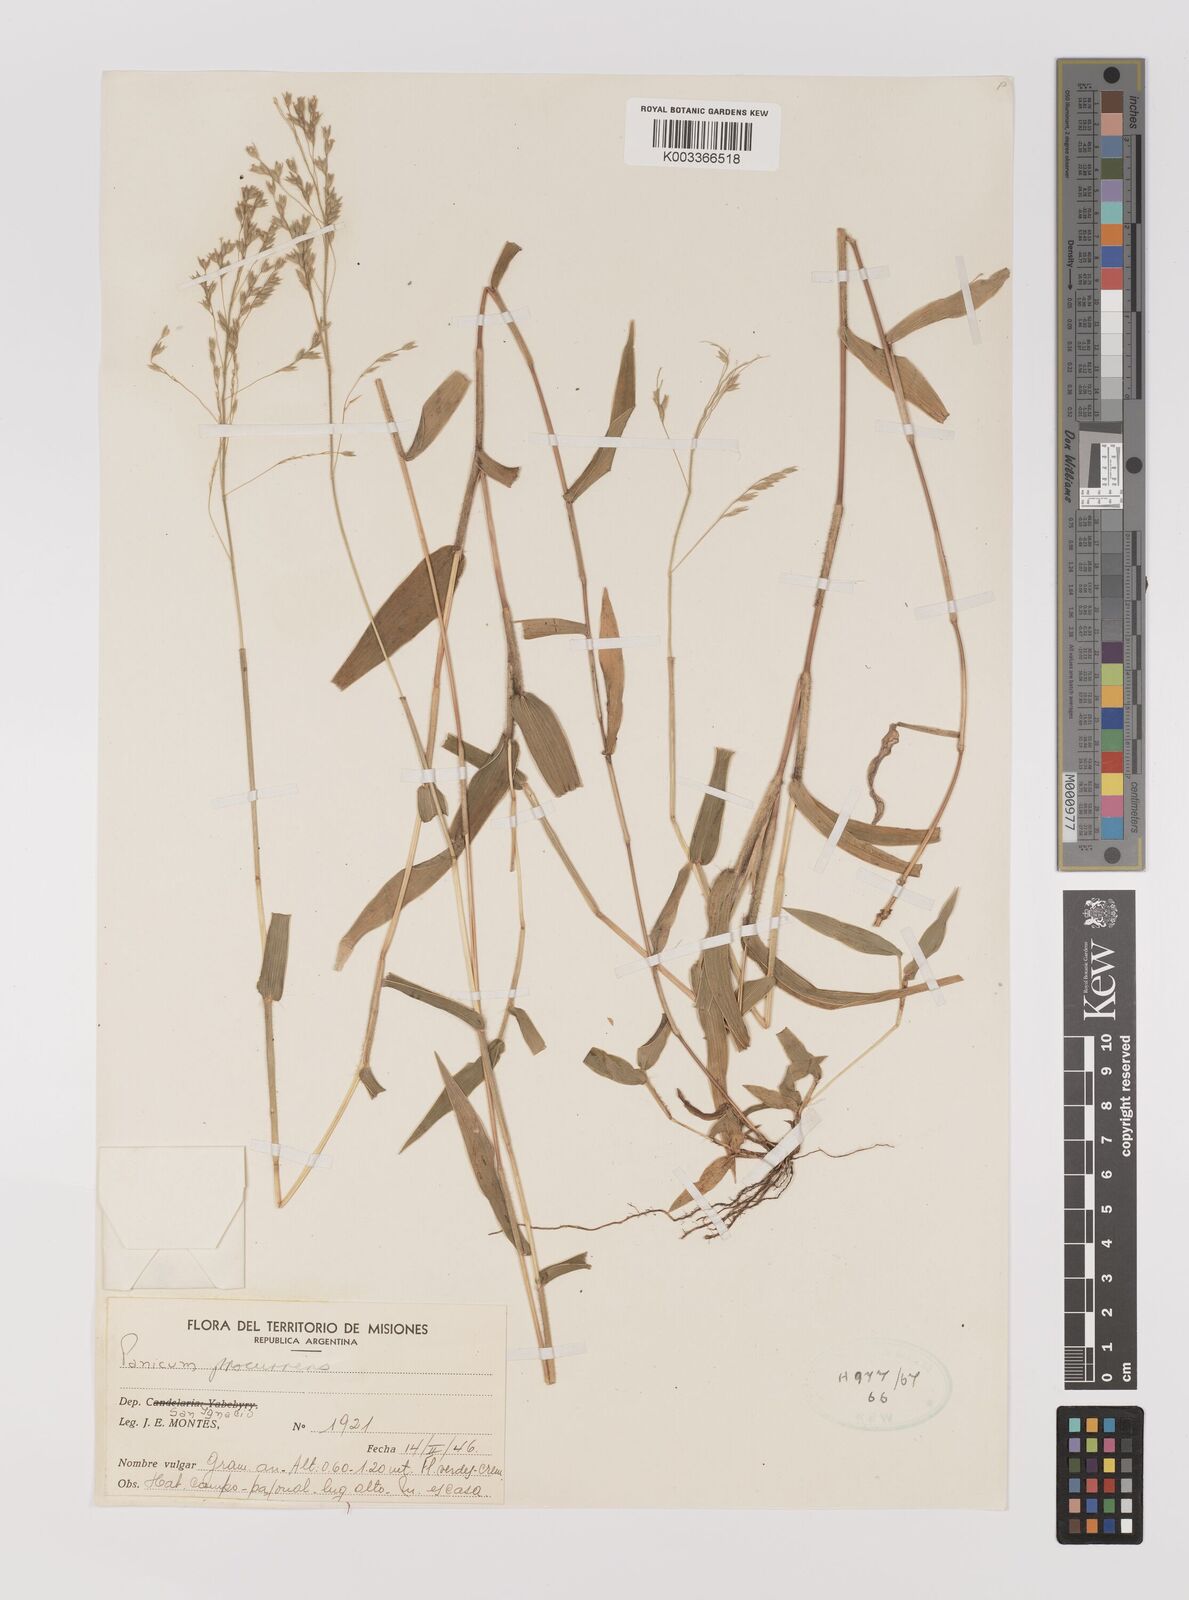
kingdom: Plantae
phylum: Tracheophyta
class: Liliopsida
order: Poales
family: Poaceae
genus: Oedochloa
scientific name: Oedochloa procurrens
